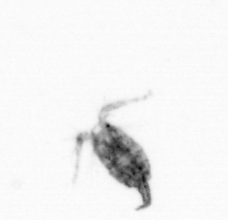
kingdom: Animalia
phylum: Arthropoda
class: Copepoda
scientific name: Copepoda
